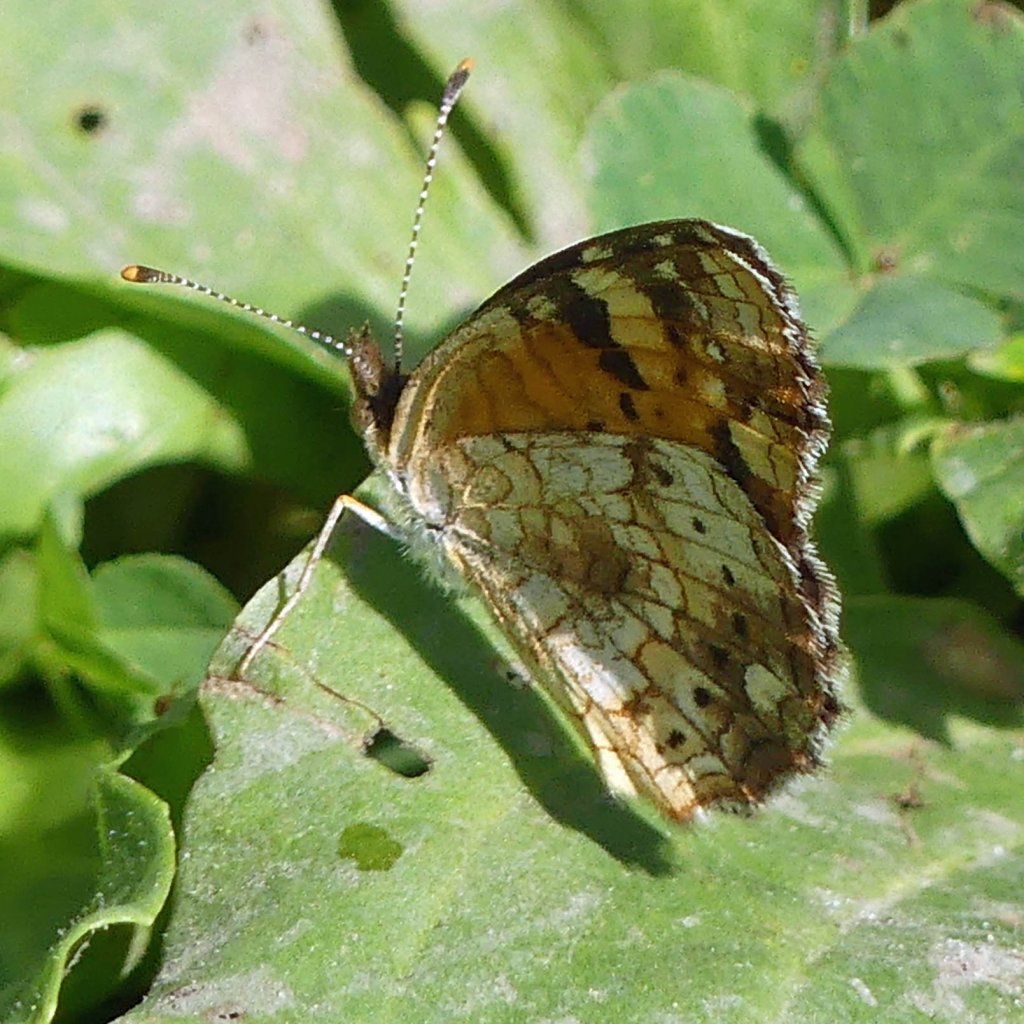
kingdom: Animalia
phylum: Arthropoda
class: Insecta
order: Lepidoptera
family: Nymphalidae
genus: Phyciodes
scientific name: Phyciodes tharos
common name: Northern Crescent
